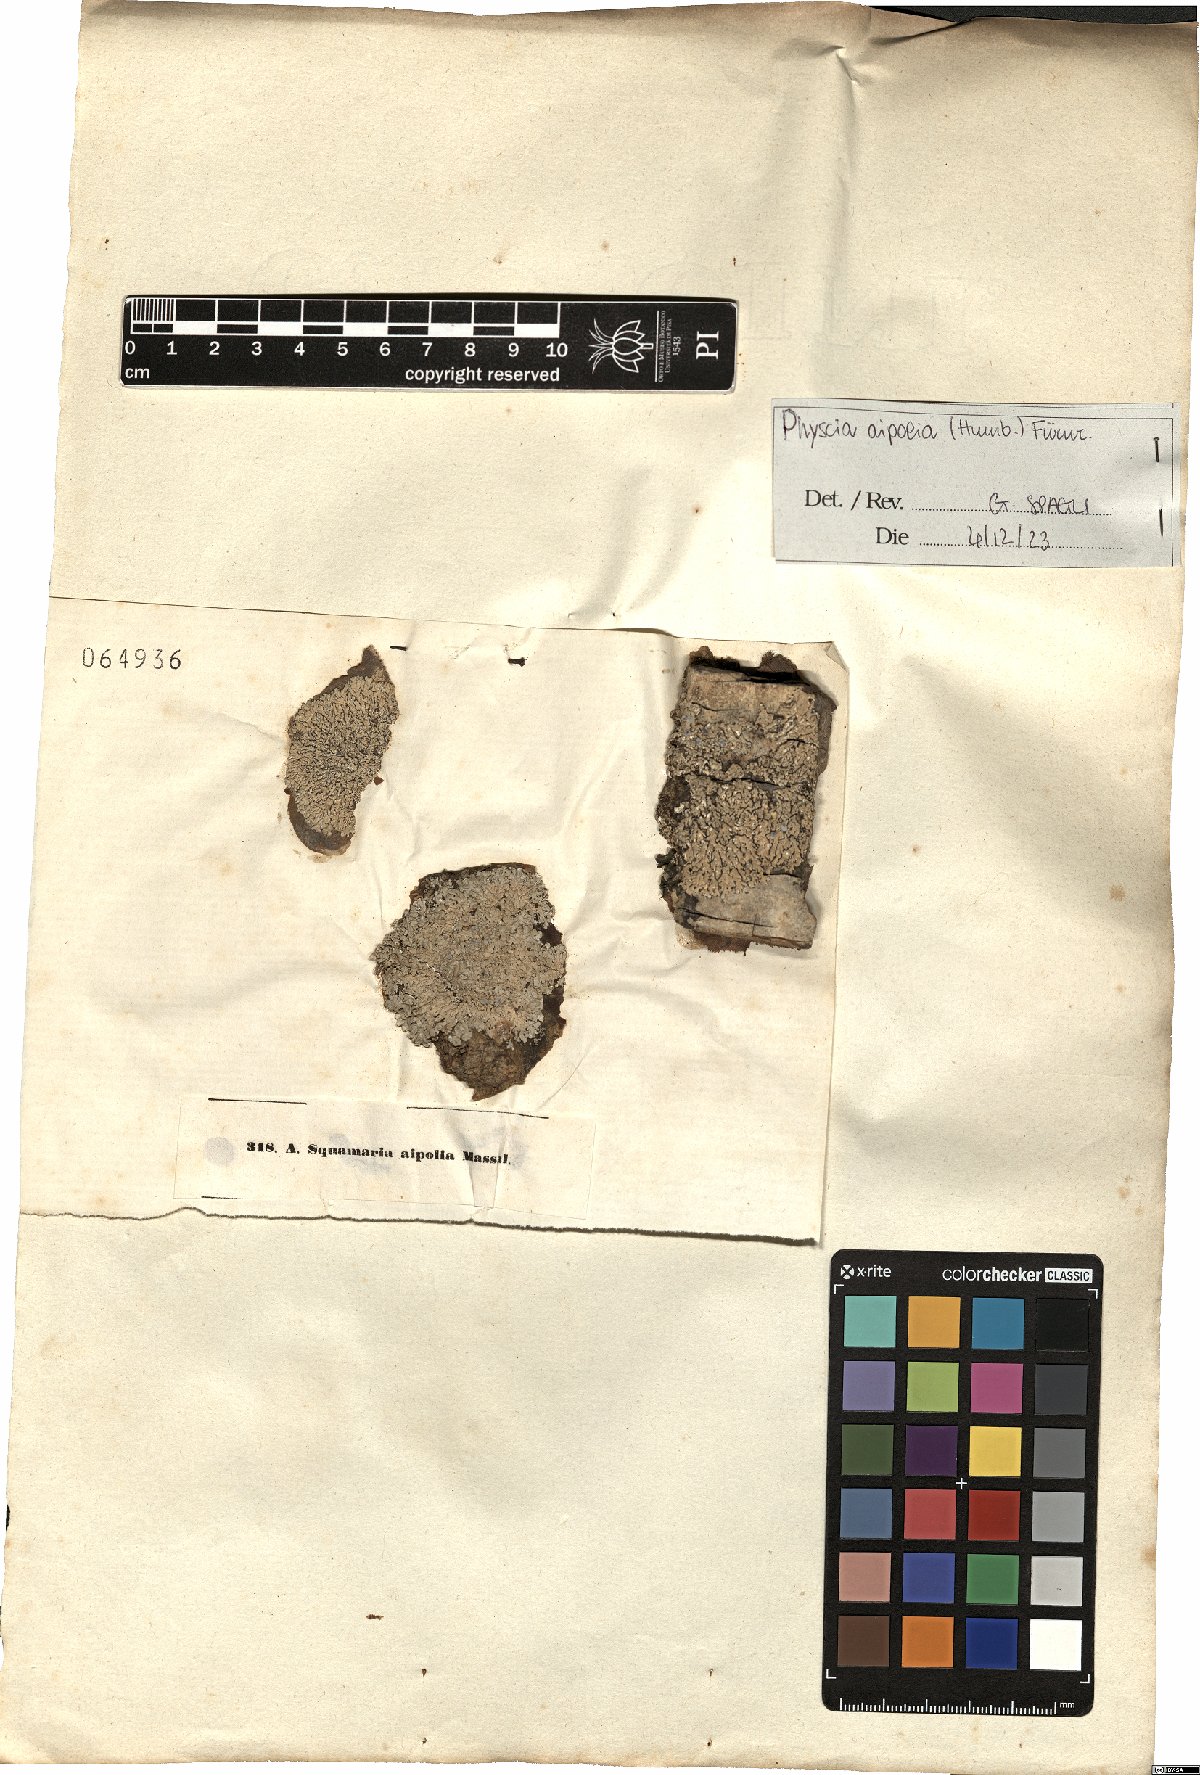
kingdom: Fungi
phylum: Ascomycota
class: Lecanoromycetes
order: Caliciales
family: Physciaceae
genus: Physcia
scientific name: Physcia aipolia
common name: Hoary rosette lichen
